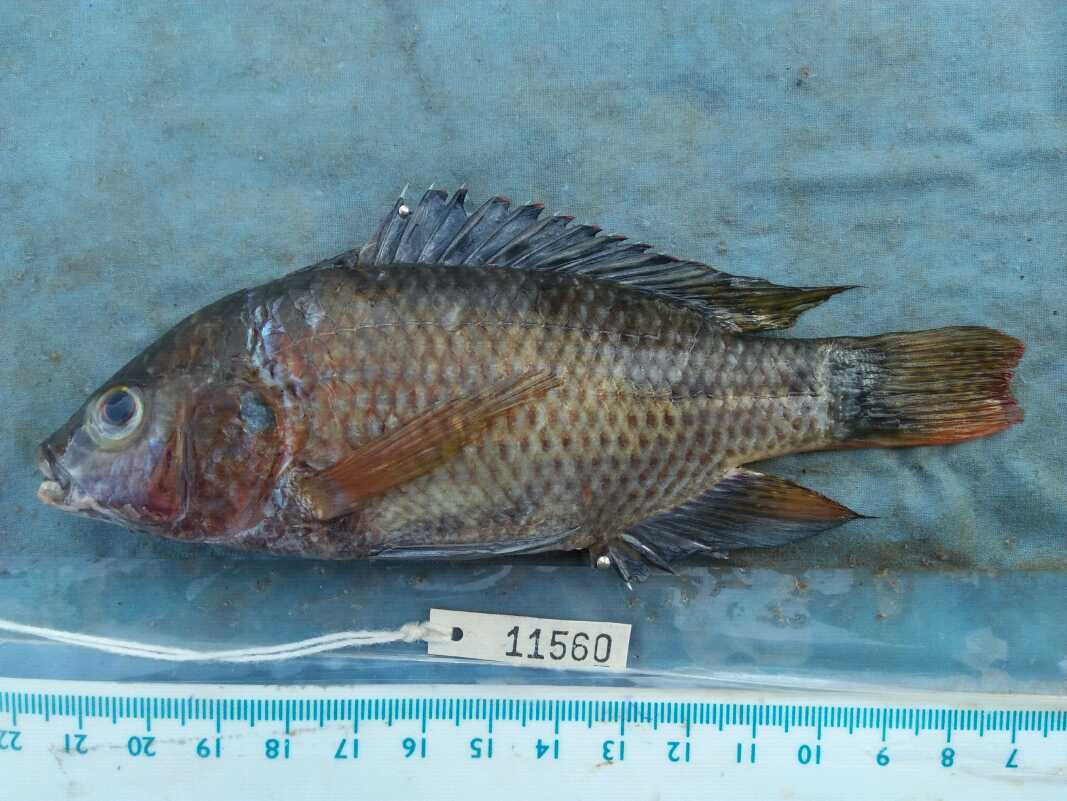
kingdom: Animalia
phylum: Chordata
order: Perciformes
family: Cichlidae
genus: Oreochromis
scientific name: Oreochromis spilurus
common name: Sabaki tilapia
